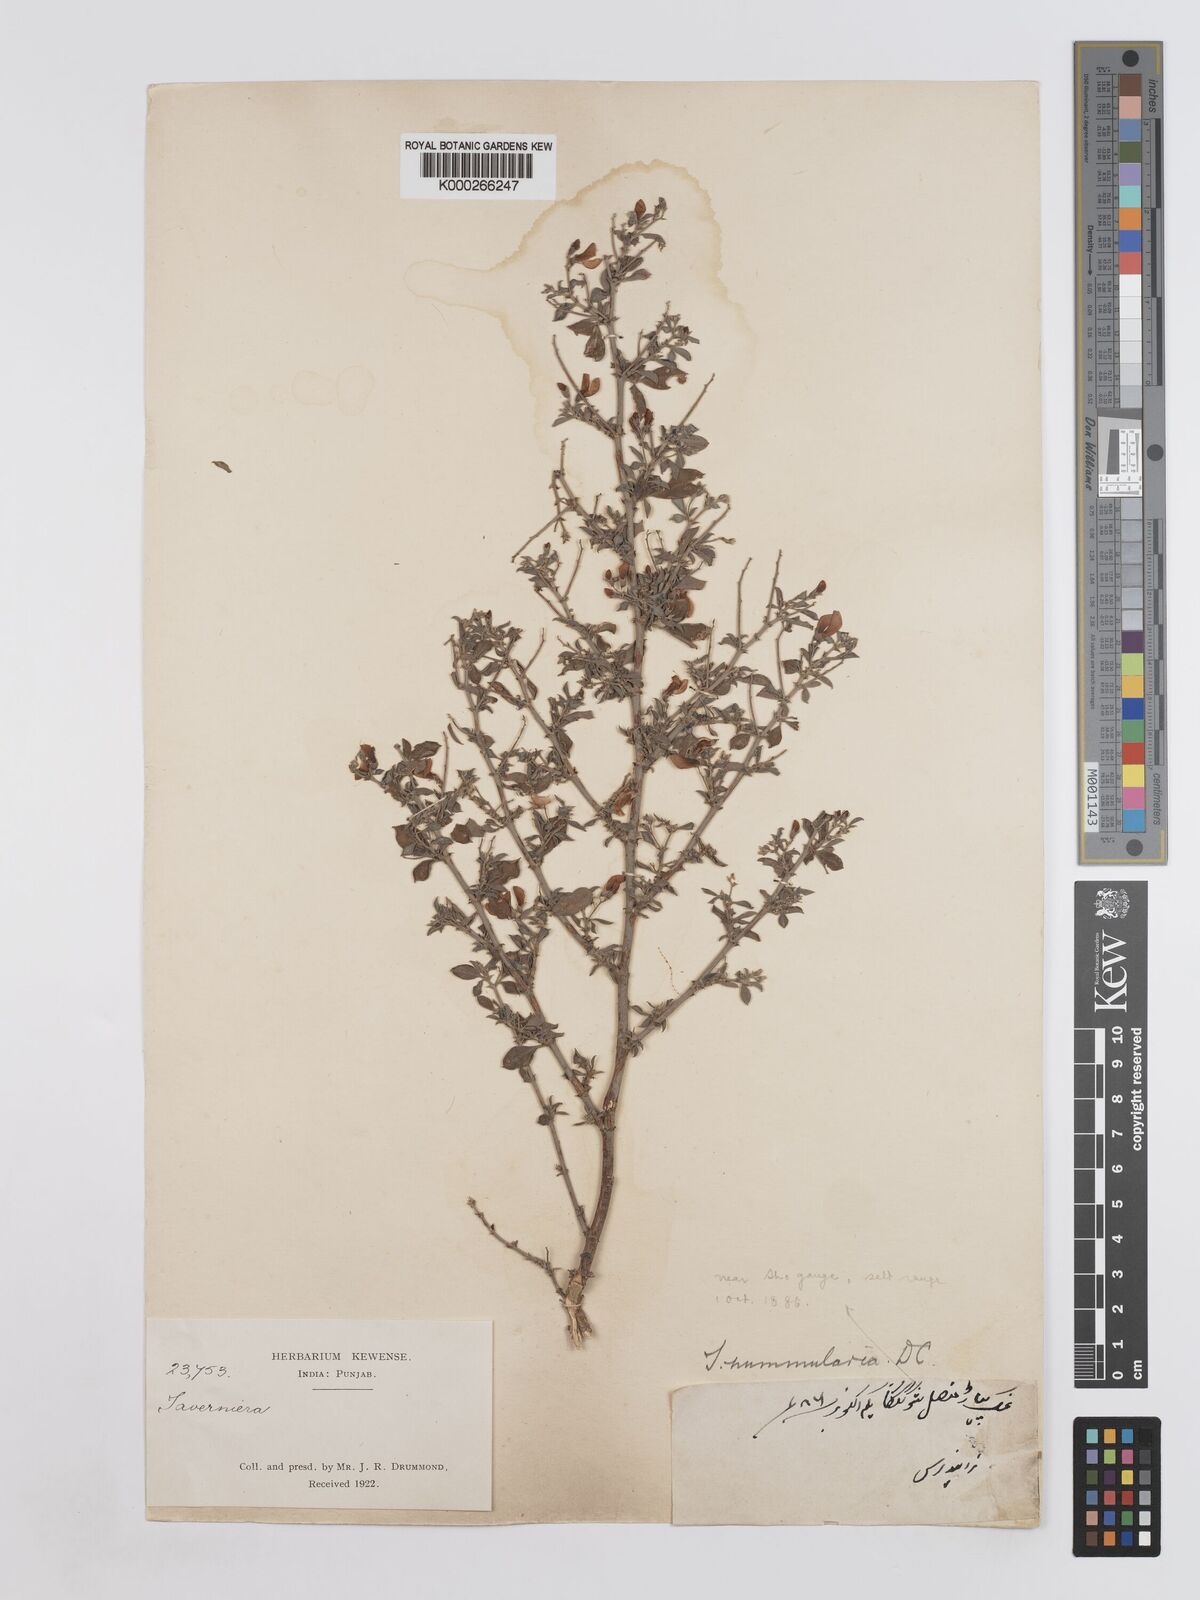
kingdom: Plantae
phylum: Tracheophyta
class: Magnoliopsida
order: Fabales
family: Fabaceae
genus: Taverniera
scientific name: Taverniera nummularia
